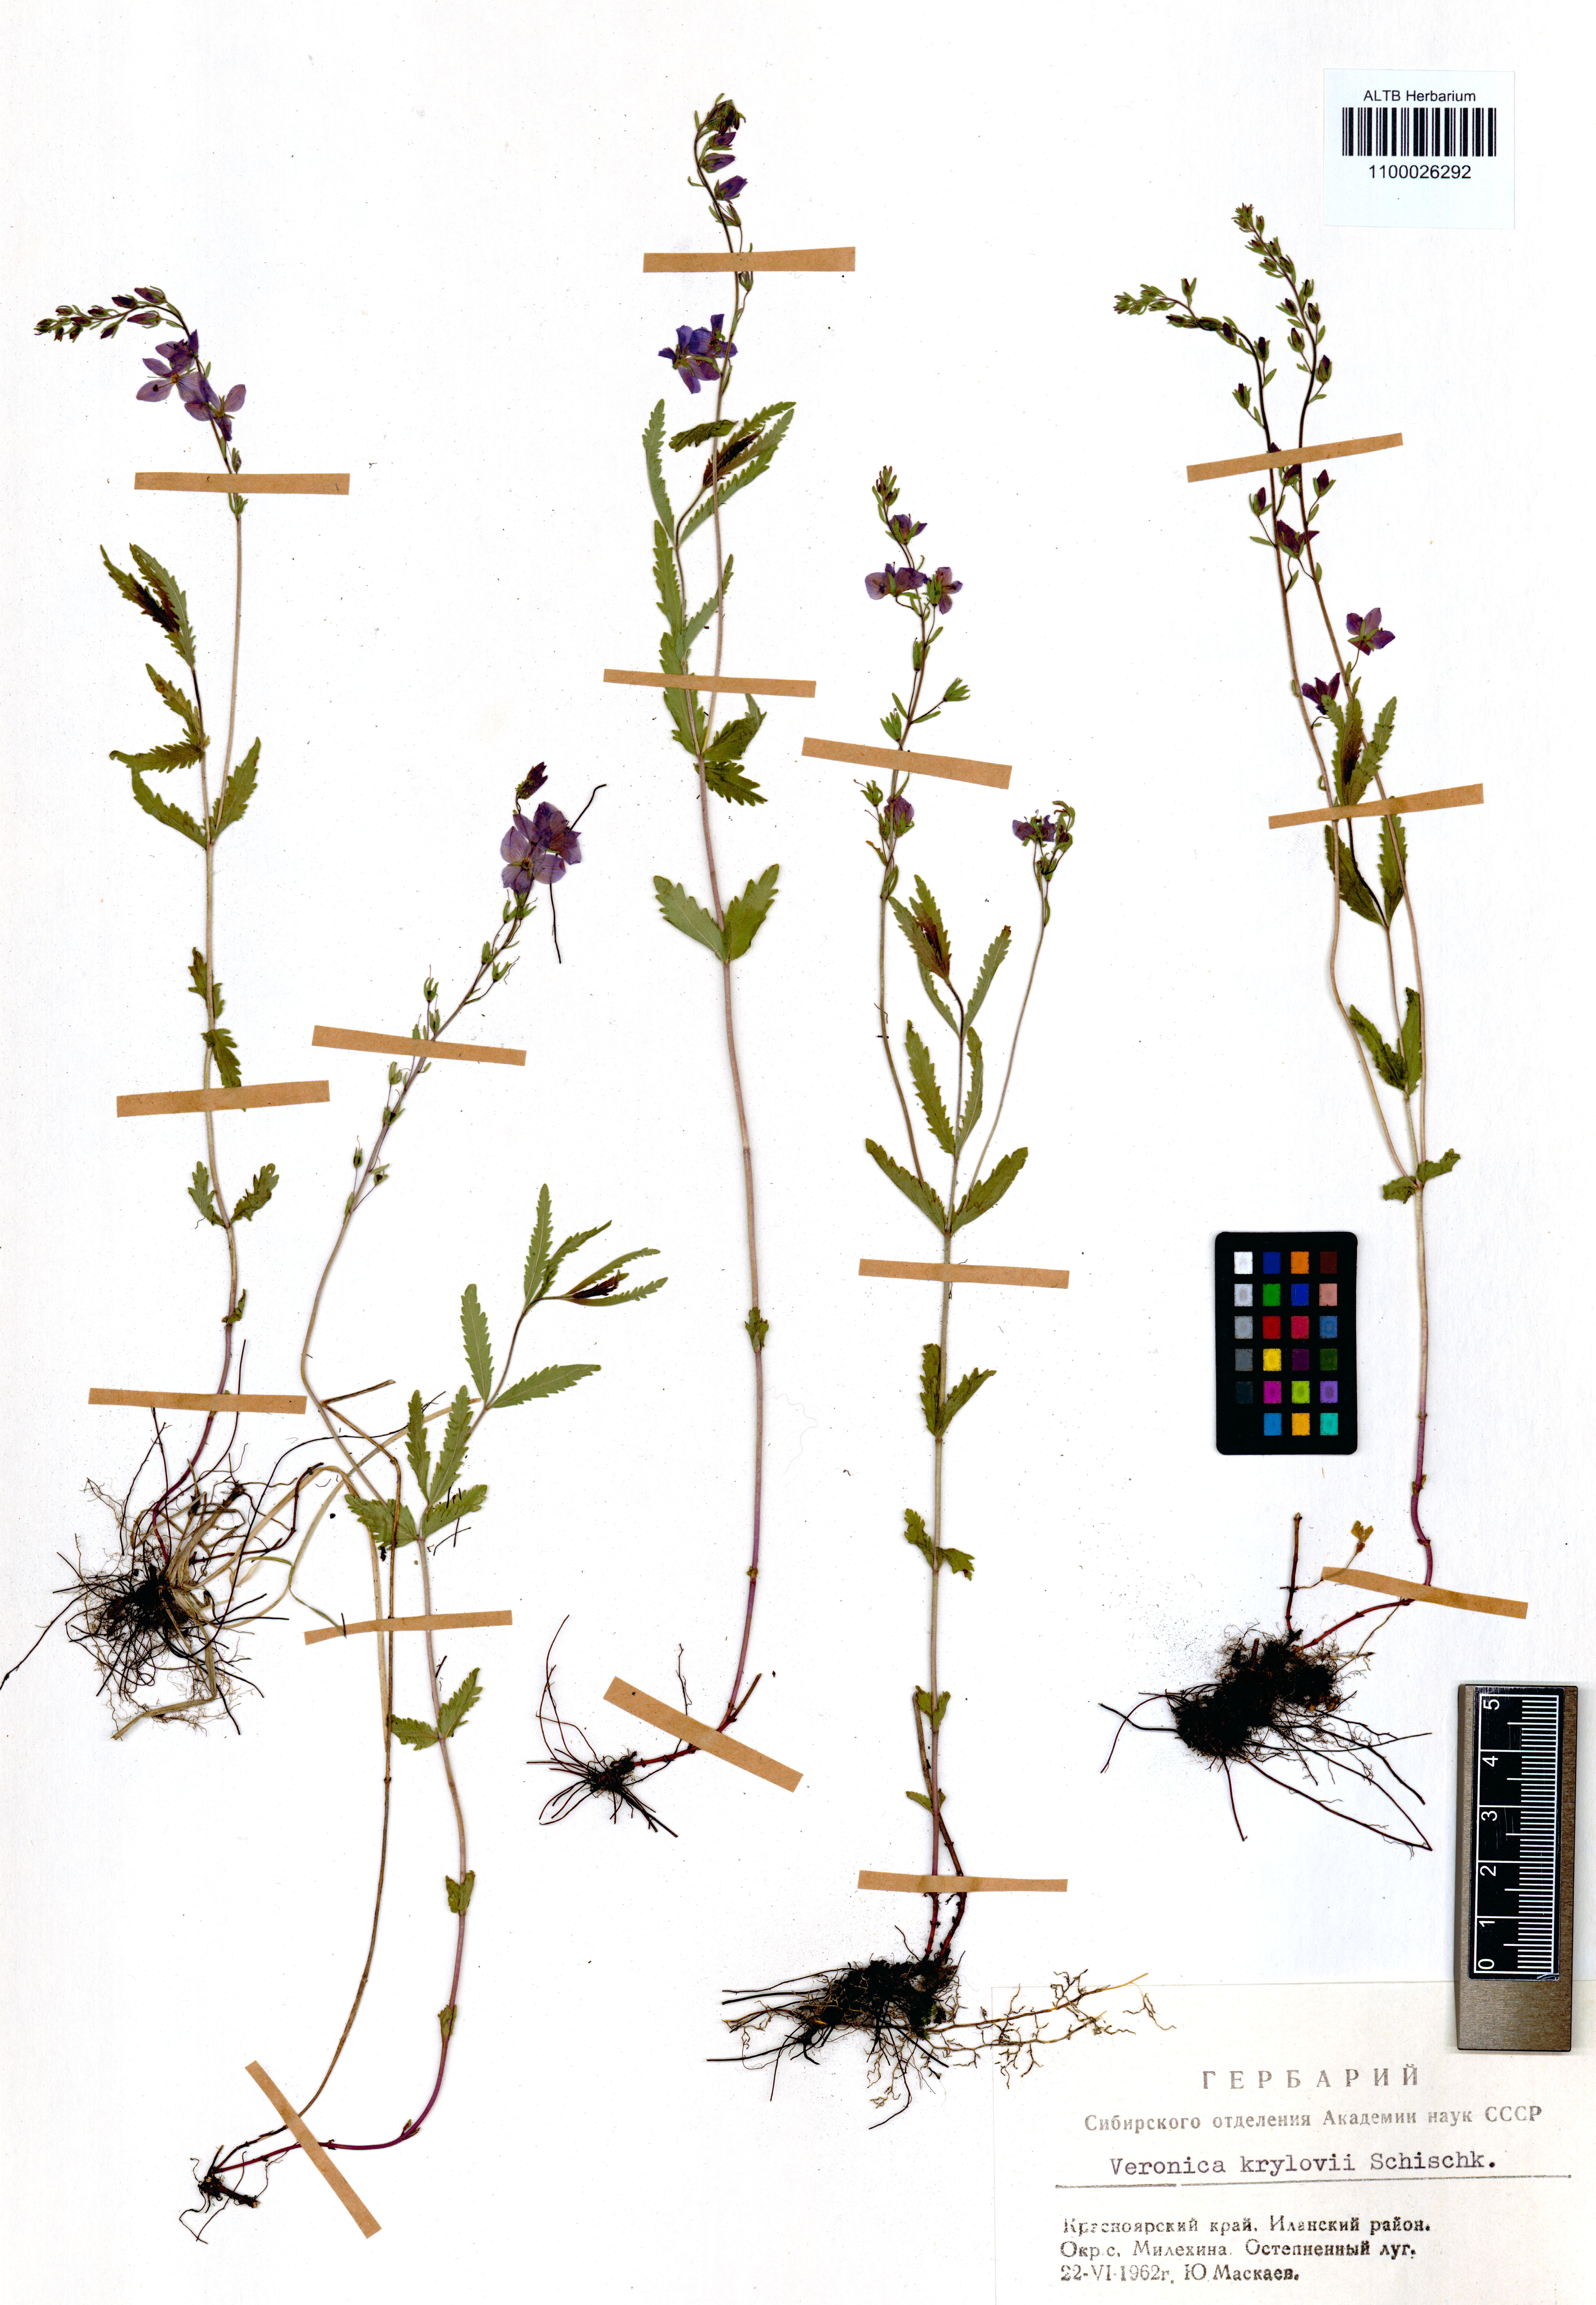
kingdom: Plantae
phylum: Tracheophyta
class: Magnoliopsida
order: Lamiales
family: Plantaginaceae
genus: Veronica
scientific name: Veronica krylovii
